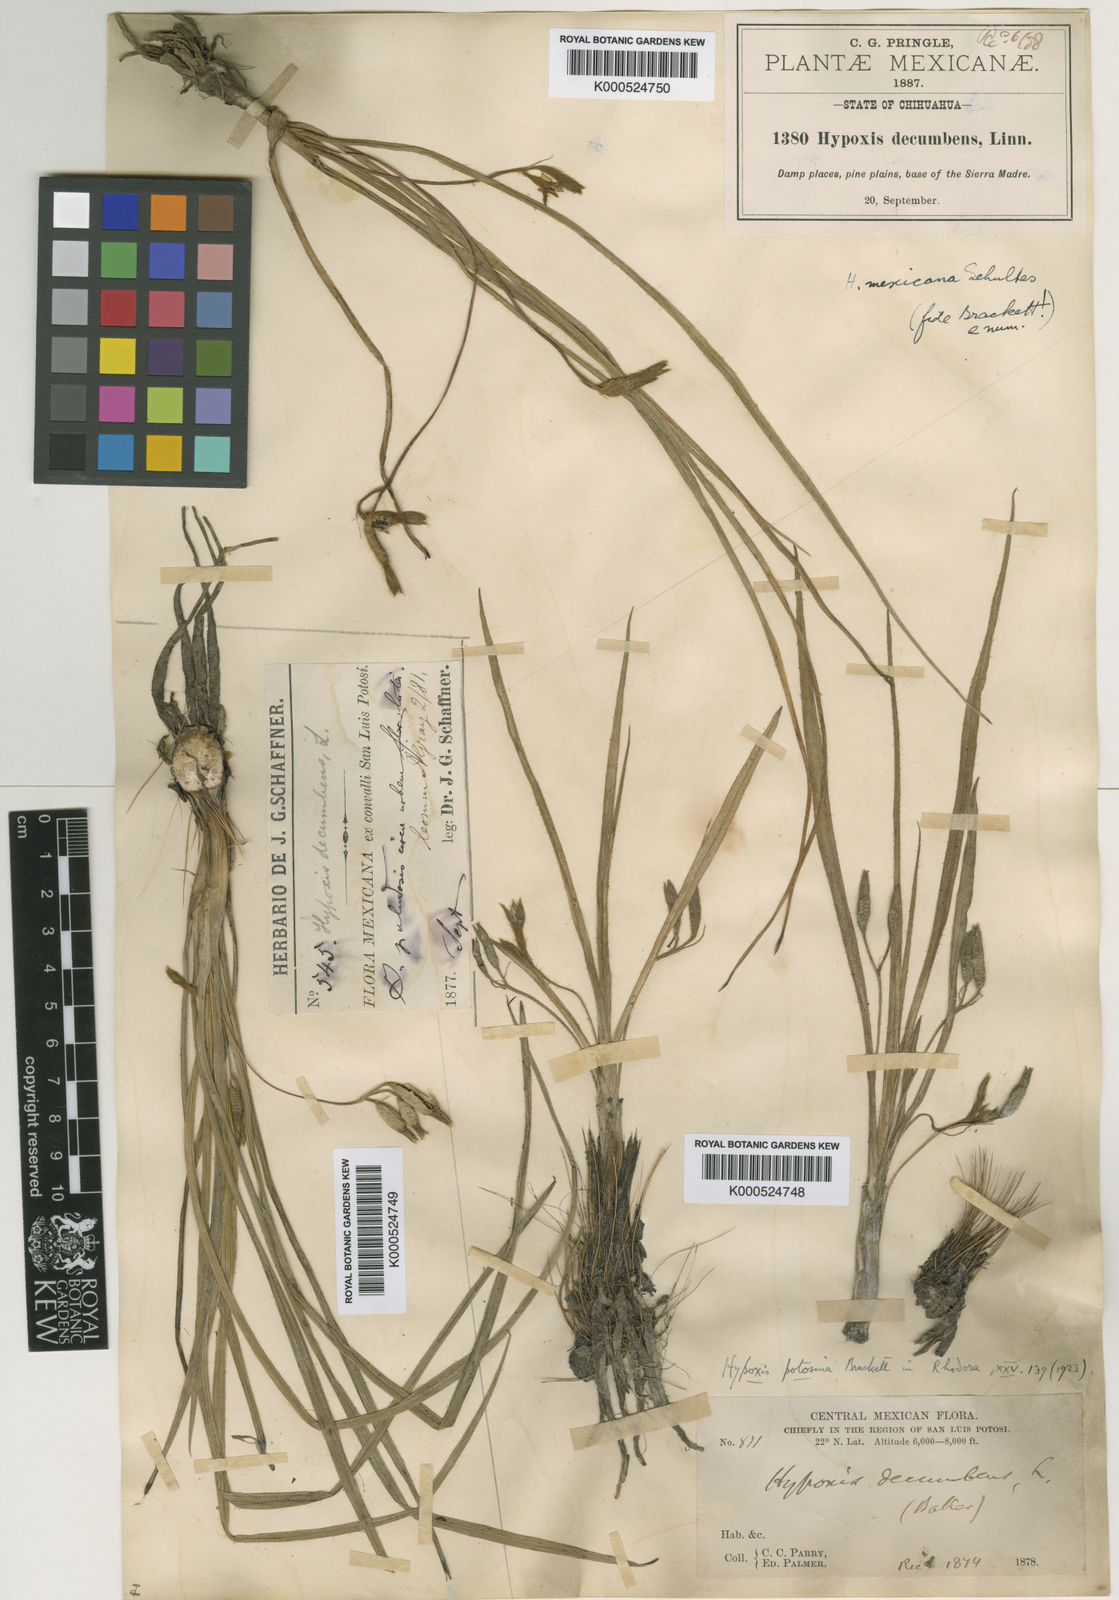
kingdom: Plantae
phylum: Tracheophyta
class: Liliopsida
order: Asparagales
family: Hypoxidaceae
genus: Hypoxis
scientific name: Hypoxis potosina
